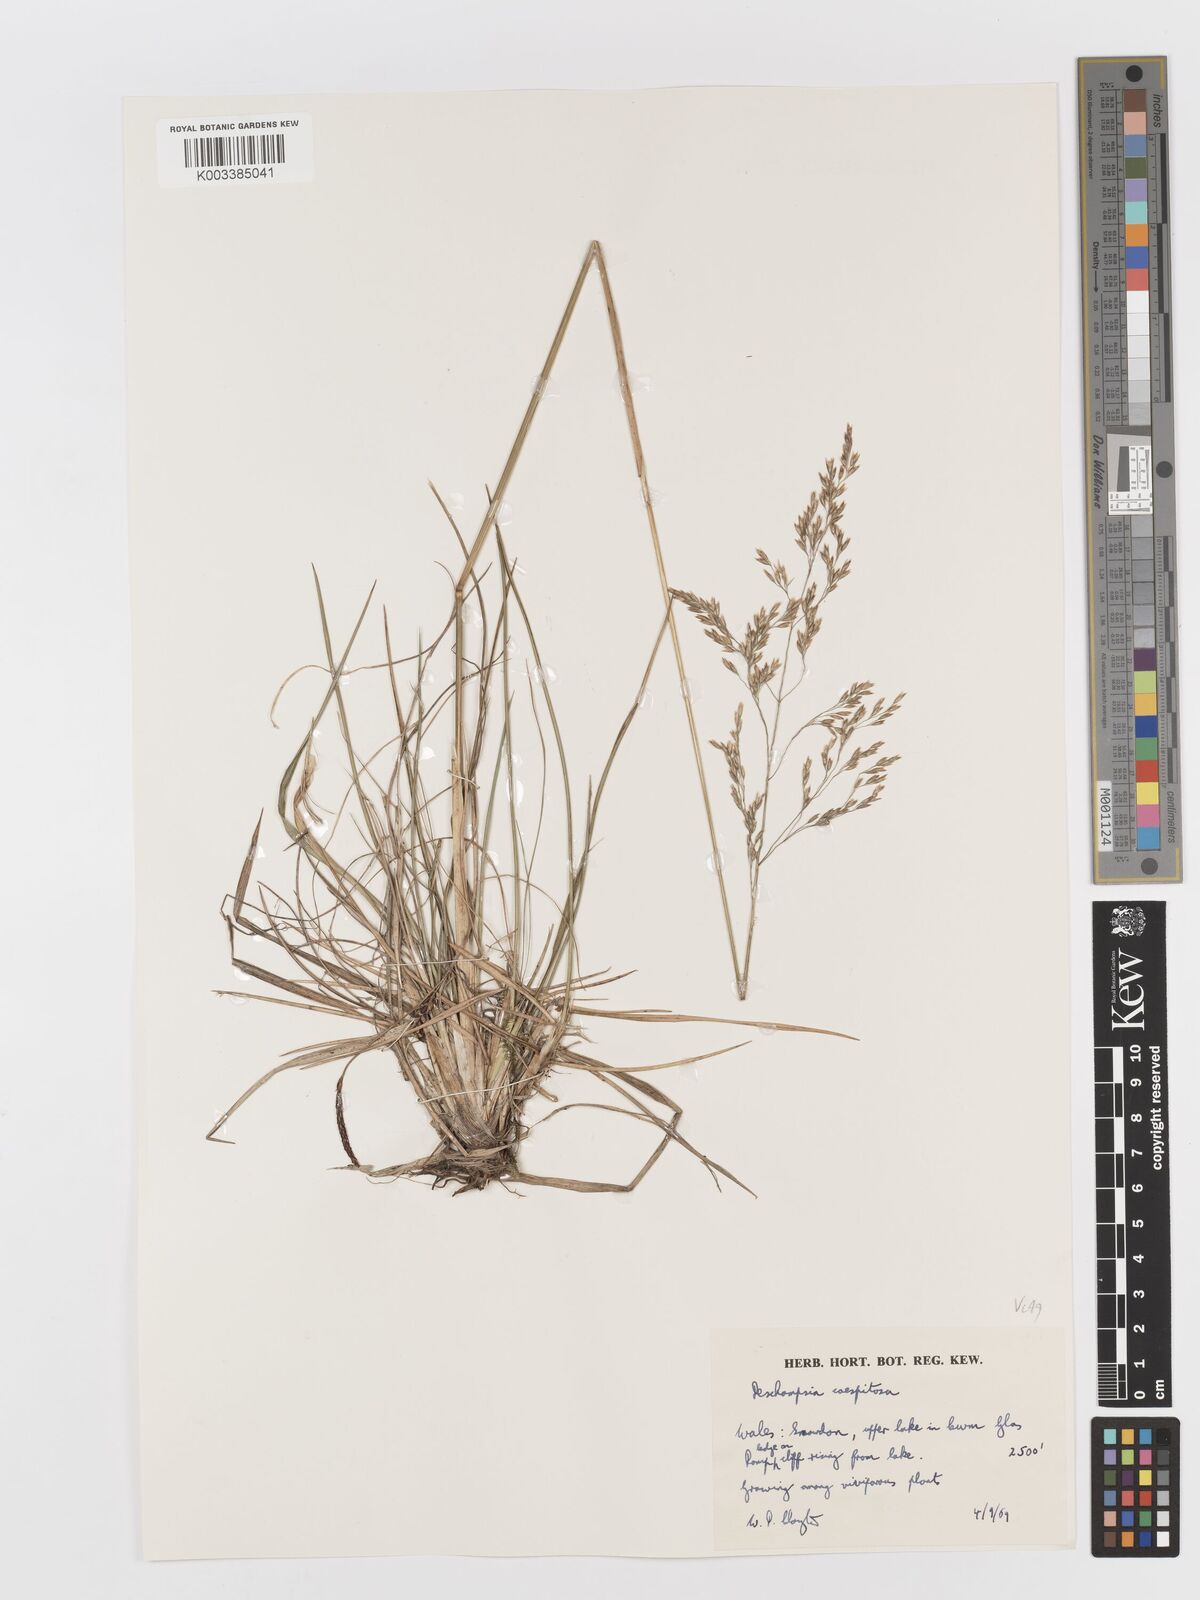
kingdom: Plantae
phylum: Tracheophyta
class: Liliopsida
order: Poales
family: Poaceae
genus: Deschampsia
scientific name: Deschampsia cespitosa
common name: Tufted hair-grass
